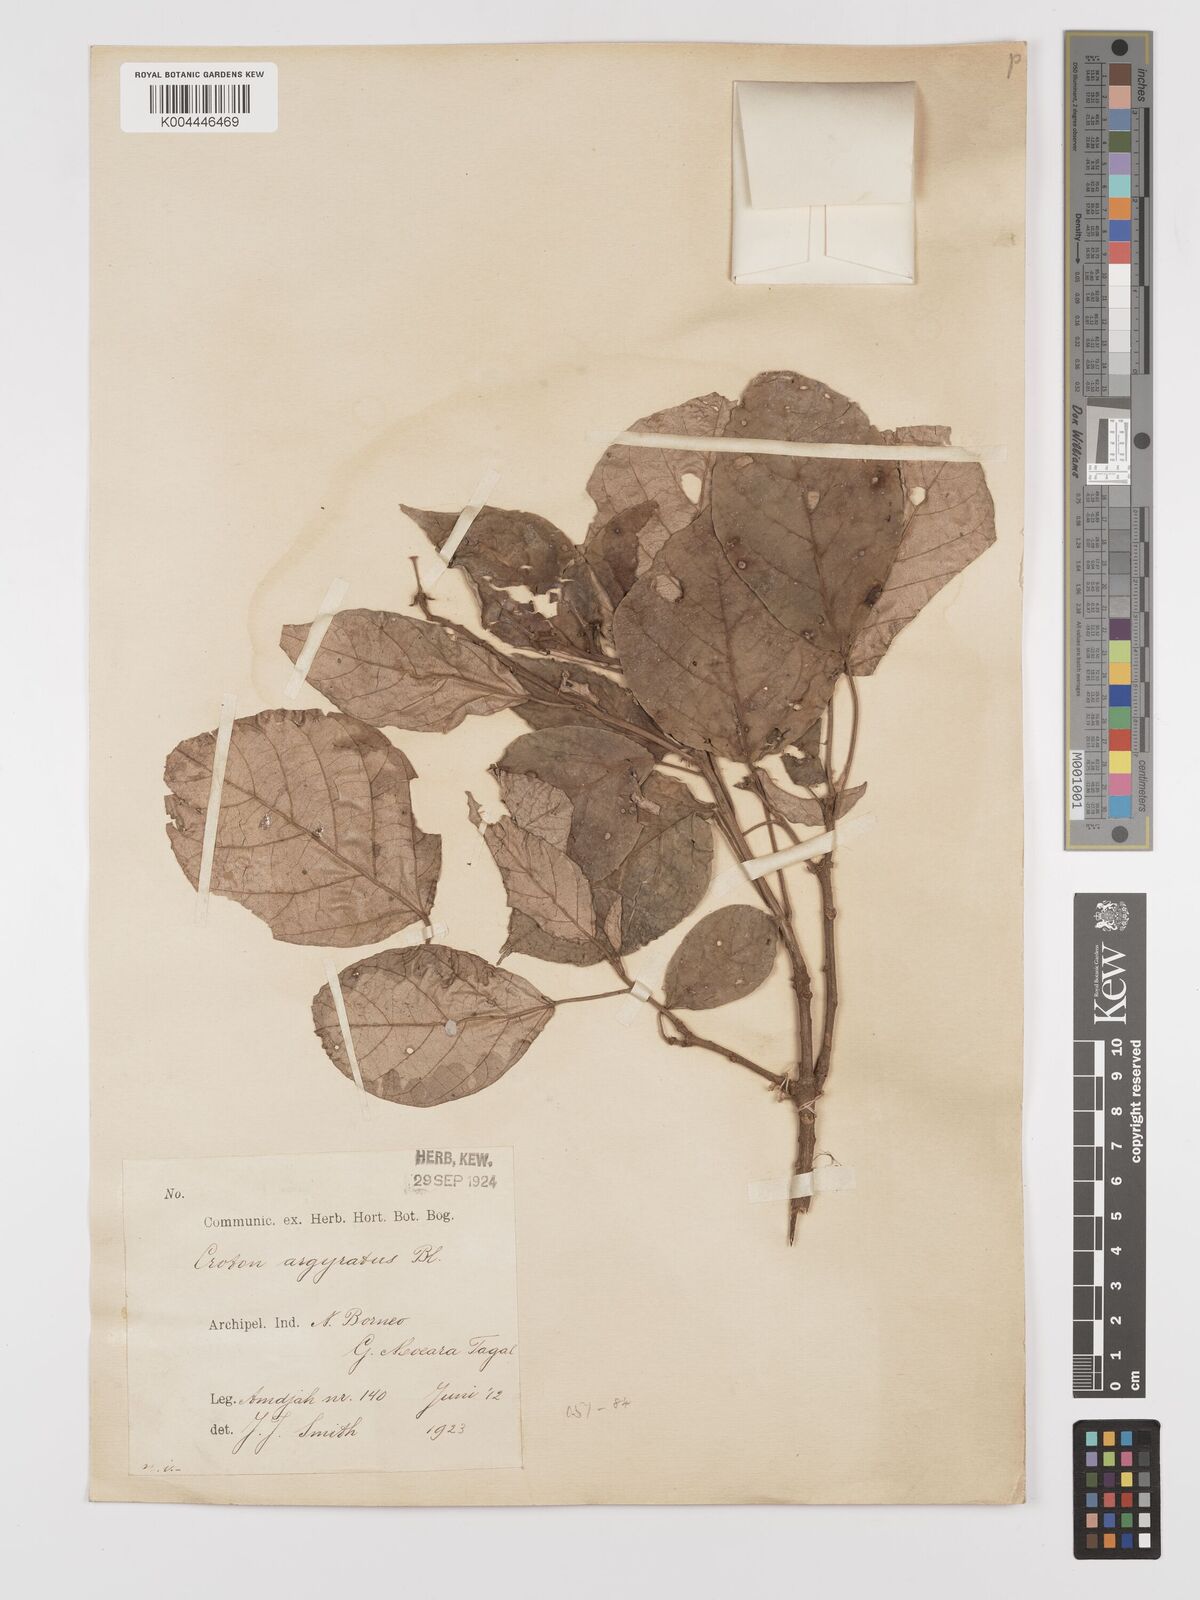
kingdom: Plantae
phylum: Tracheophyta
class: Magnoliopsida
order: Malpighiales
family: Euphorbiaceae
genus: Croton
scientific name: Croton argyratus
